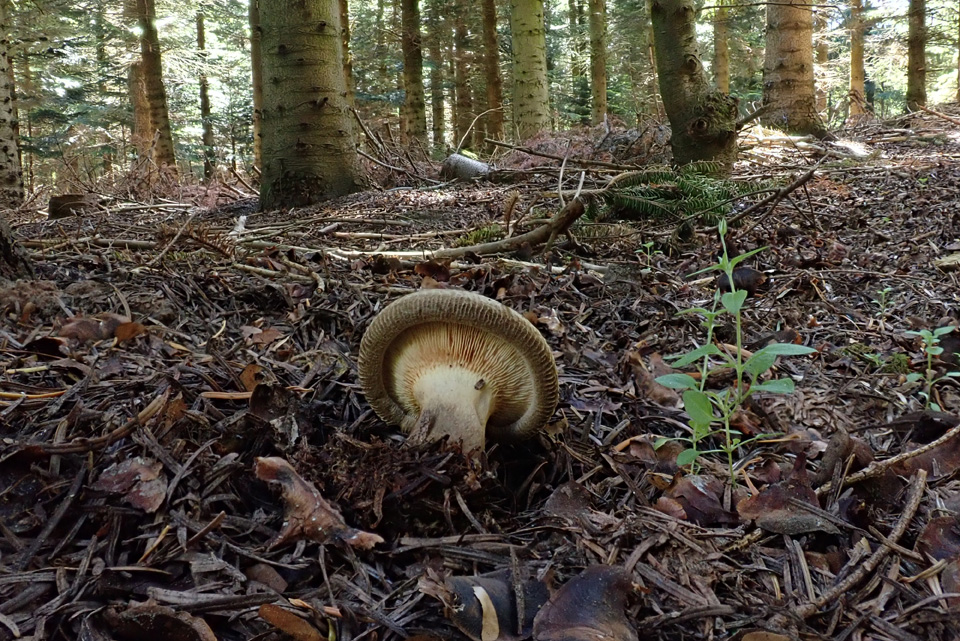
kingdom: Fungi
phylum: Basidiomycota
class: Agaricomycetes
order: Boletales
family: Paxillaceae
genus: Paxillus
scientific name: Paxillus involutus
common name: almindelig netbladhat
